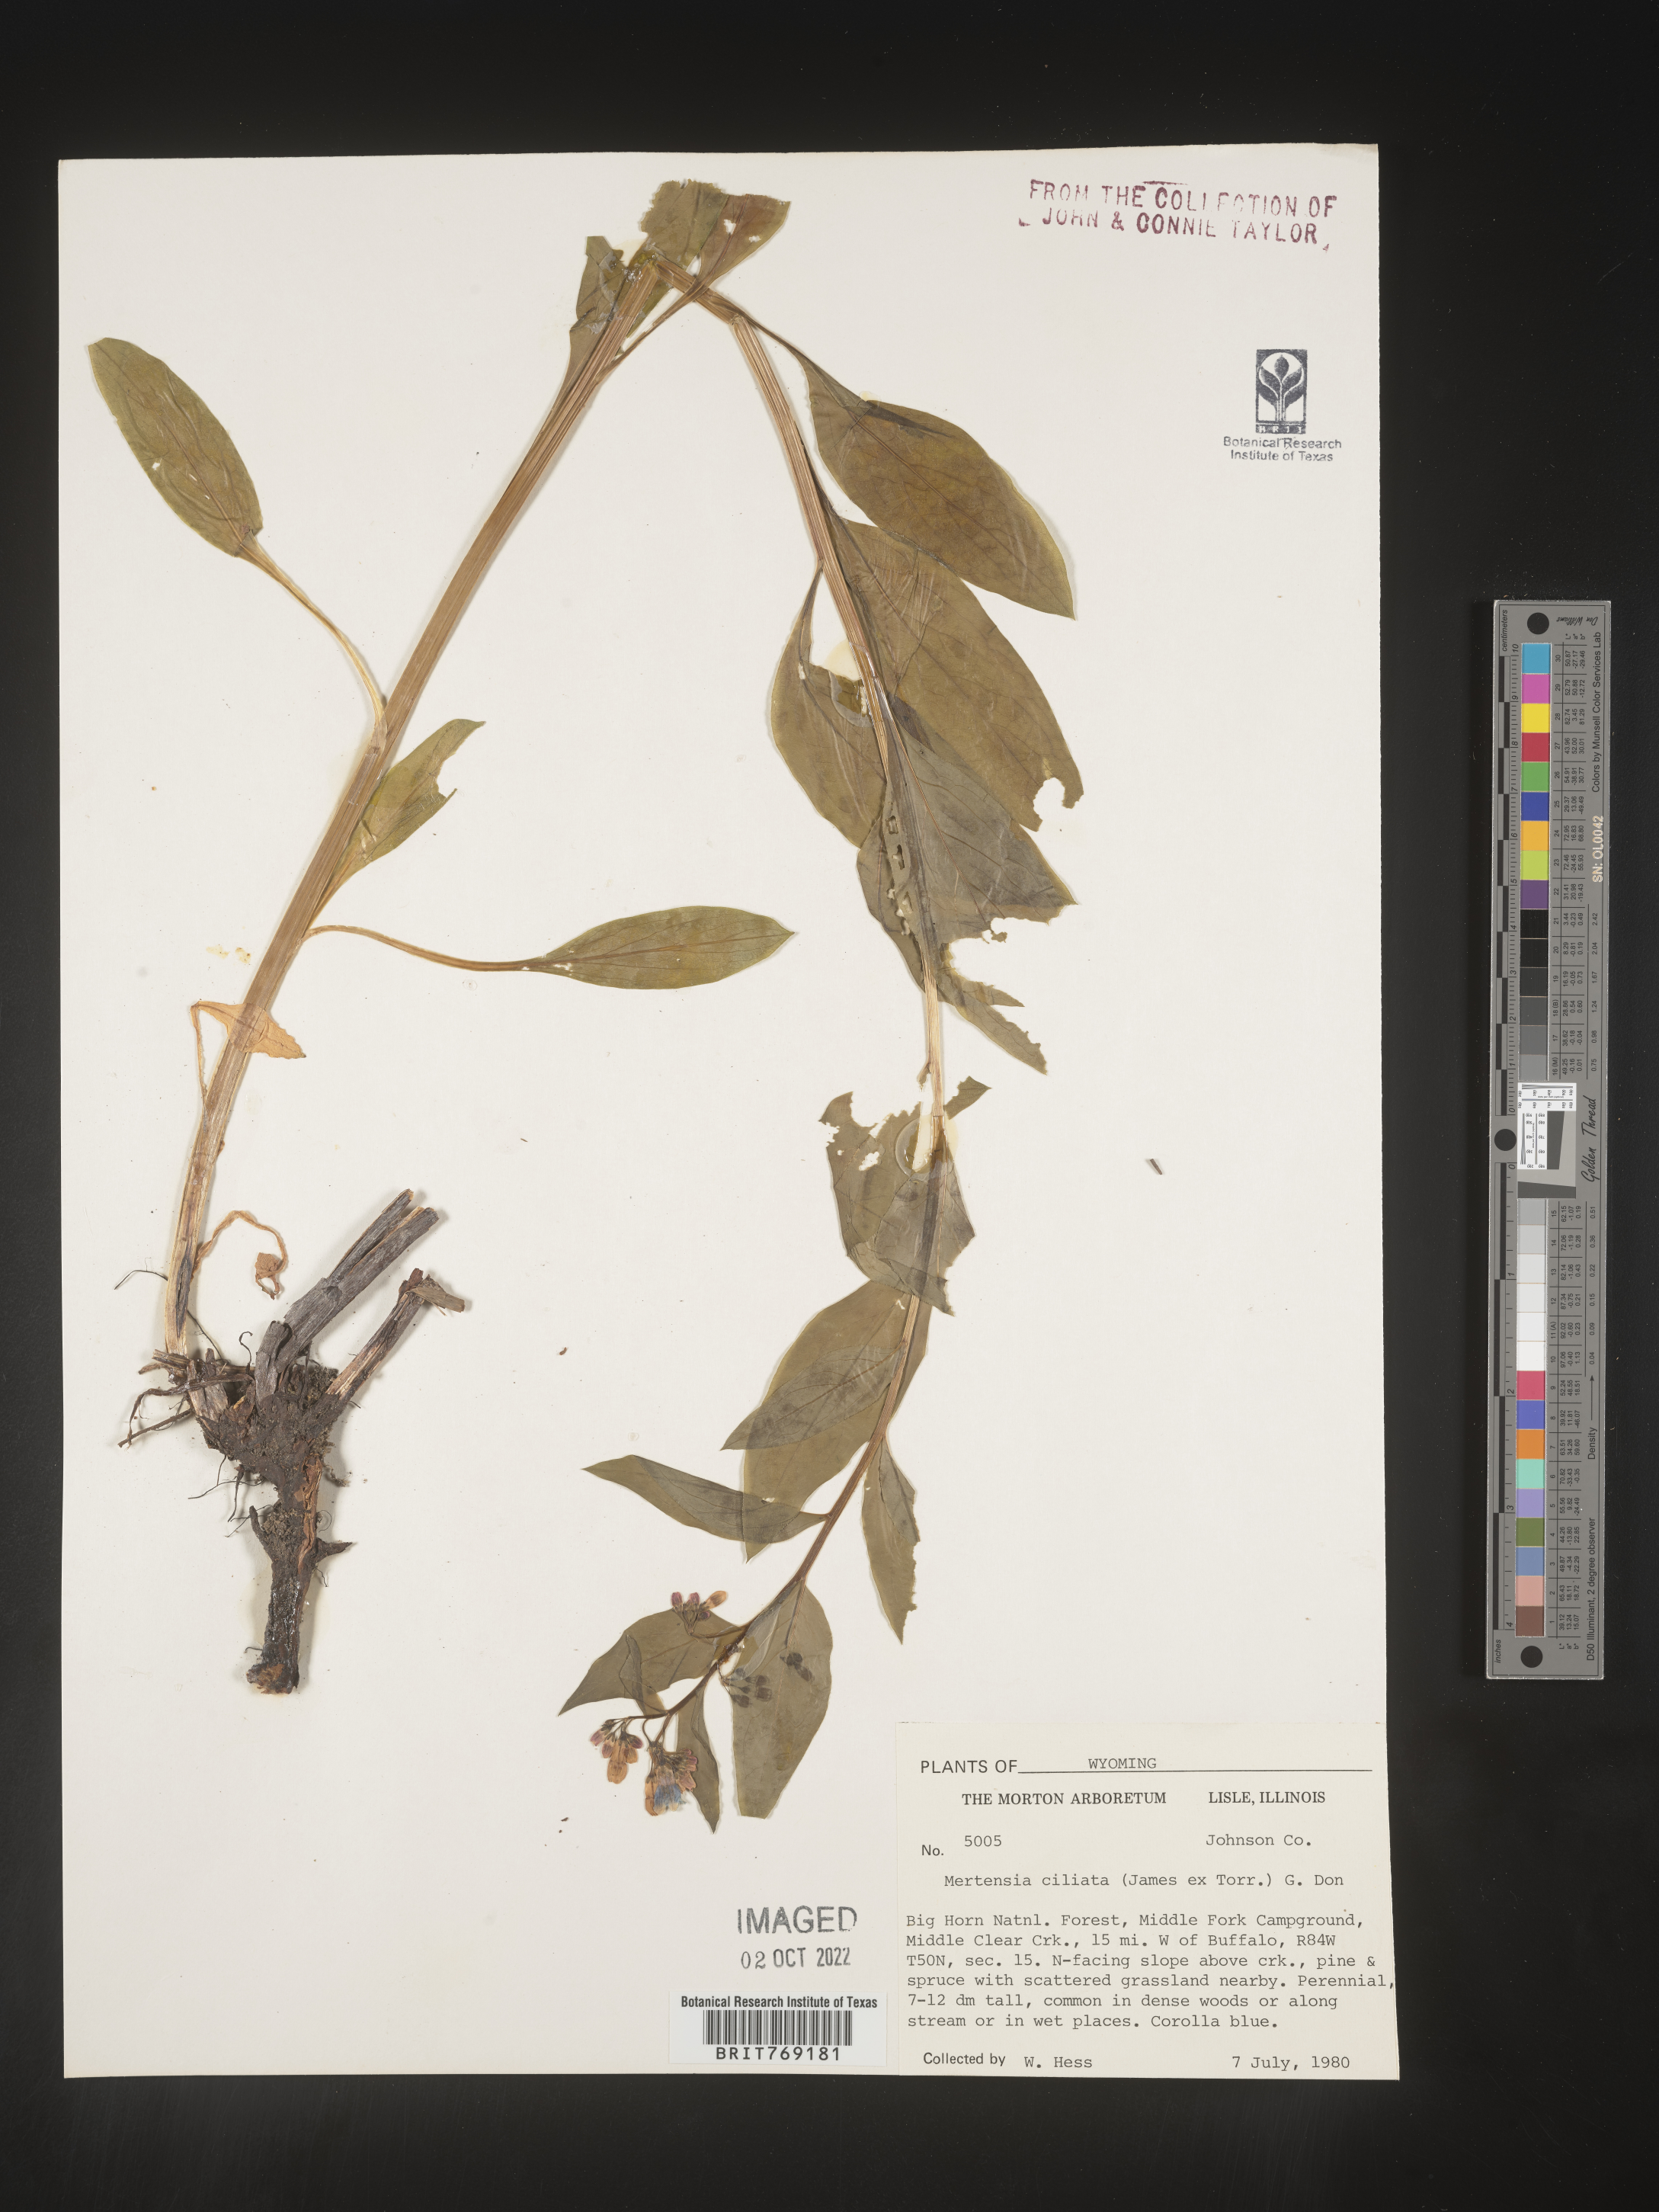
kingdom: Plantae
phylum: Tracheophyta
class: Magnoliopsida
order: Boraginales
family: Boraginaceae
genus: Mertensia
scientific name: Mertensia
